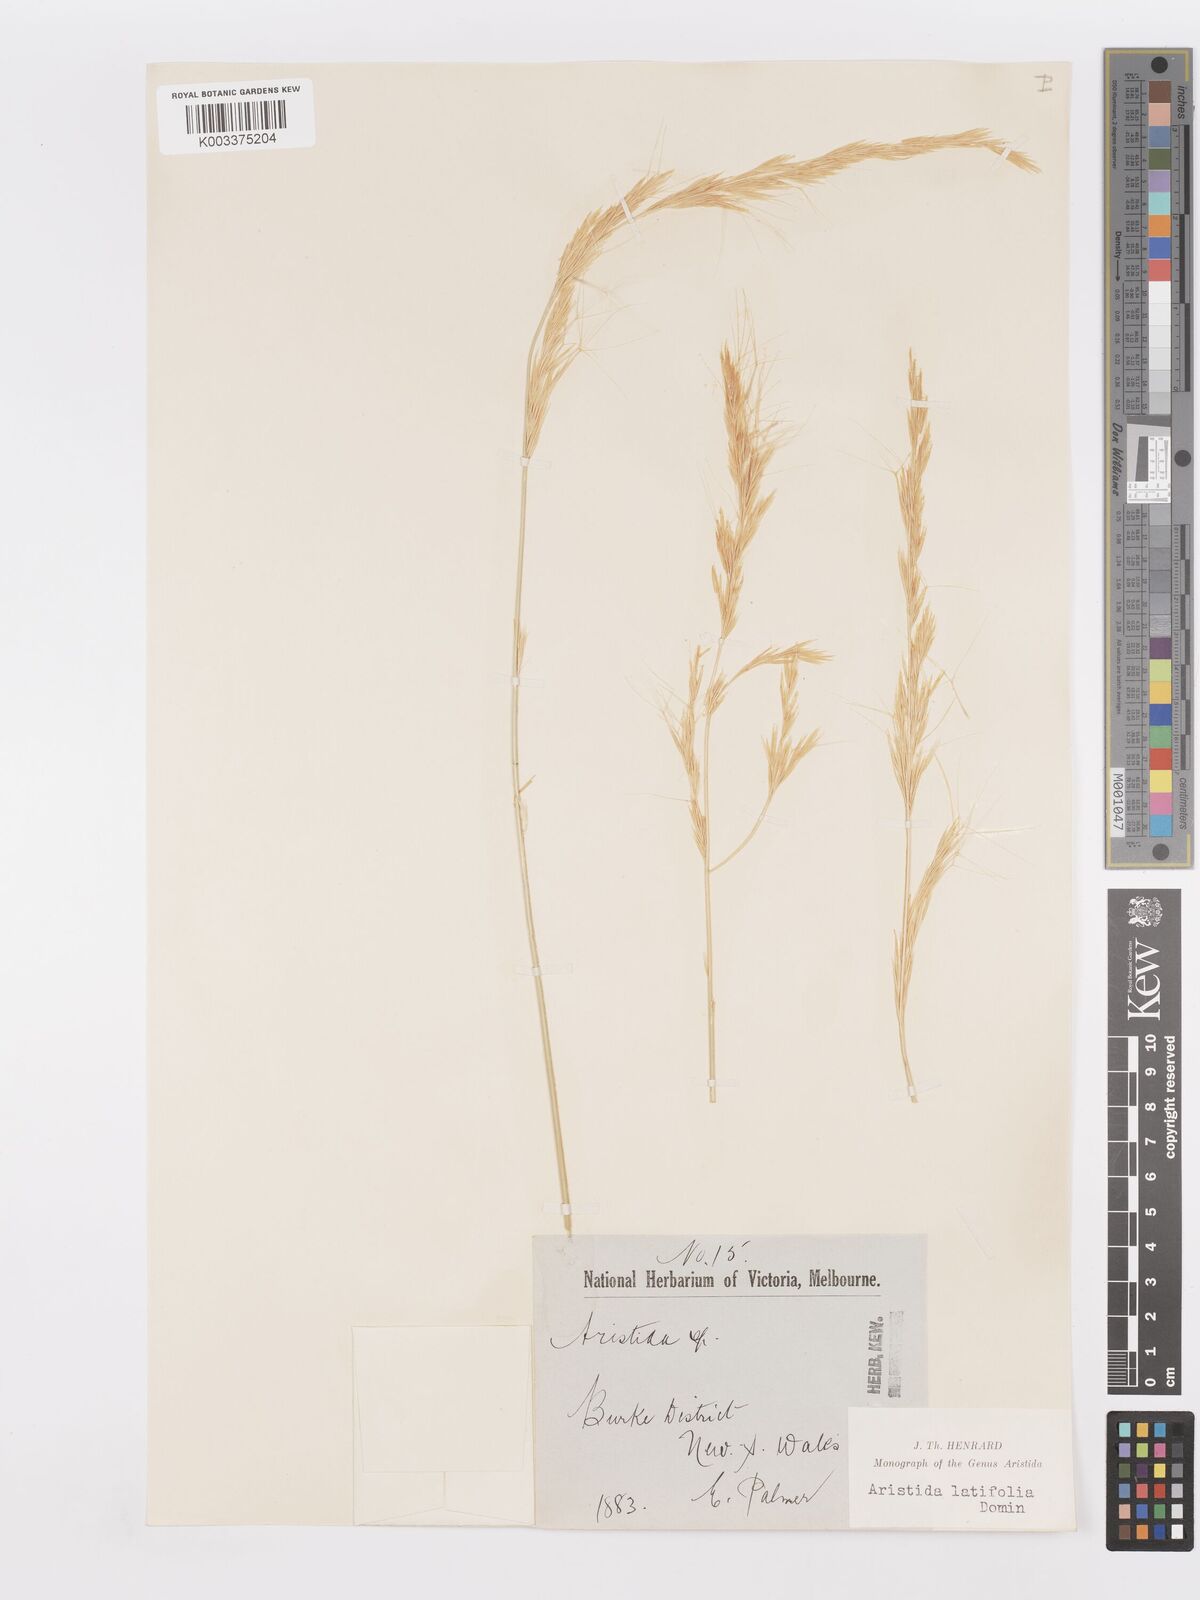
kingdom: Plantae
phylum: Tracheophyta
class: Liliopsida
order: Poales
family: Poaceae
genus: Aristida
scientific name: Aristida latifolia
